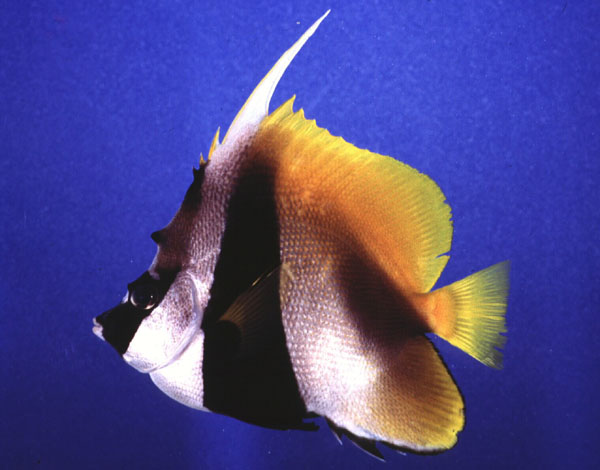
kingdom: Animalia
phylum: Chordata
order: Perciformes
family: Chaetodontidae
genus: Heniochus
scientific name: Heniochus monoceros
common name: Masked bannerfish
